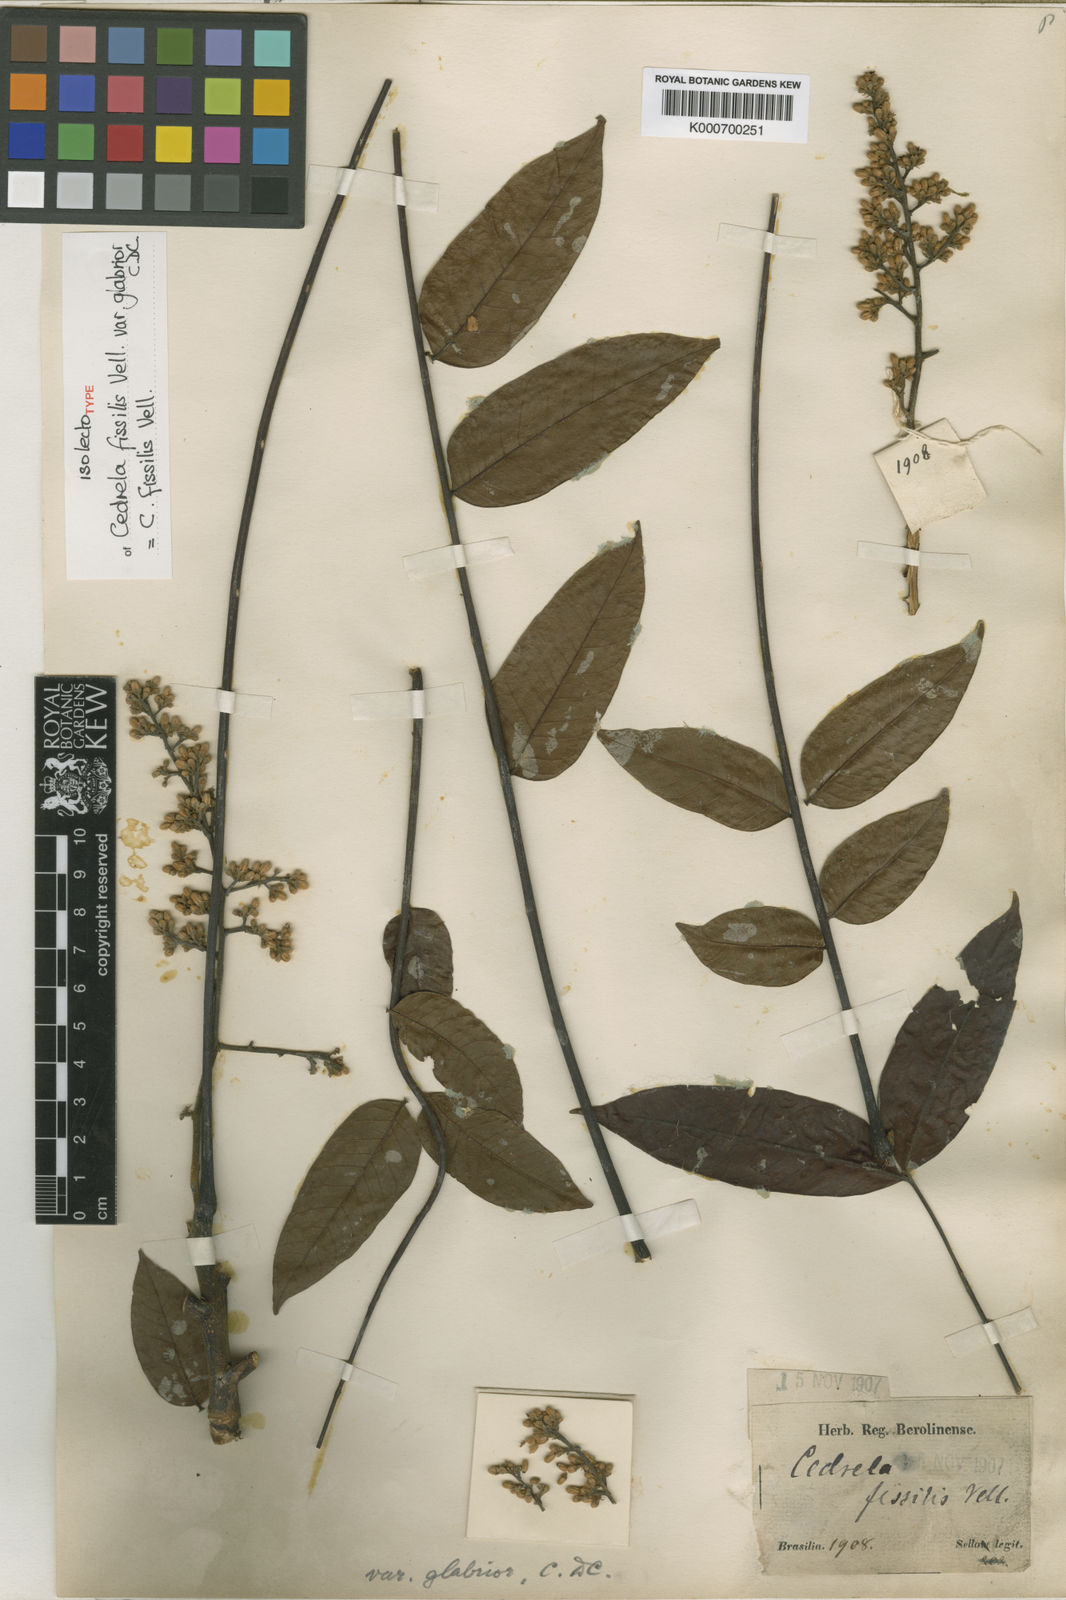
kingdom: Plantae
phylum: Tracheophyta
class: Magnoliopsida
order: Sapindales
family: Meliaceae
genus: Cedrela
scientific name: Cedrela fissilis
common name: Argentine cedar
